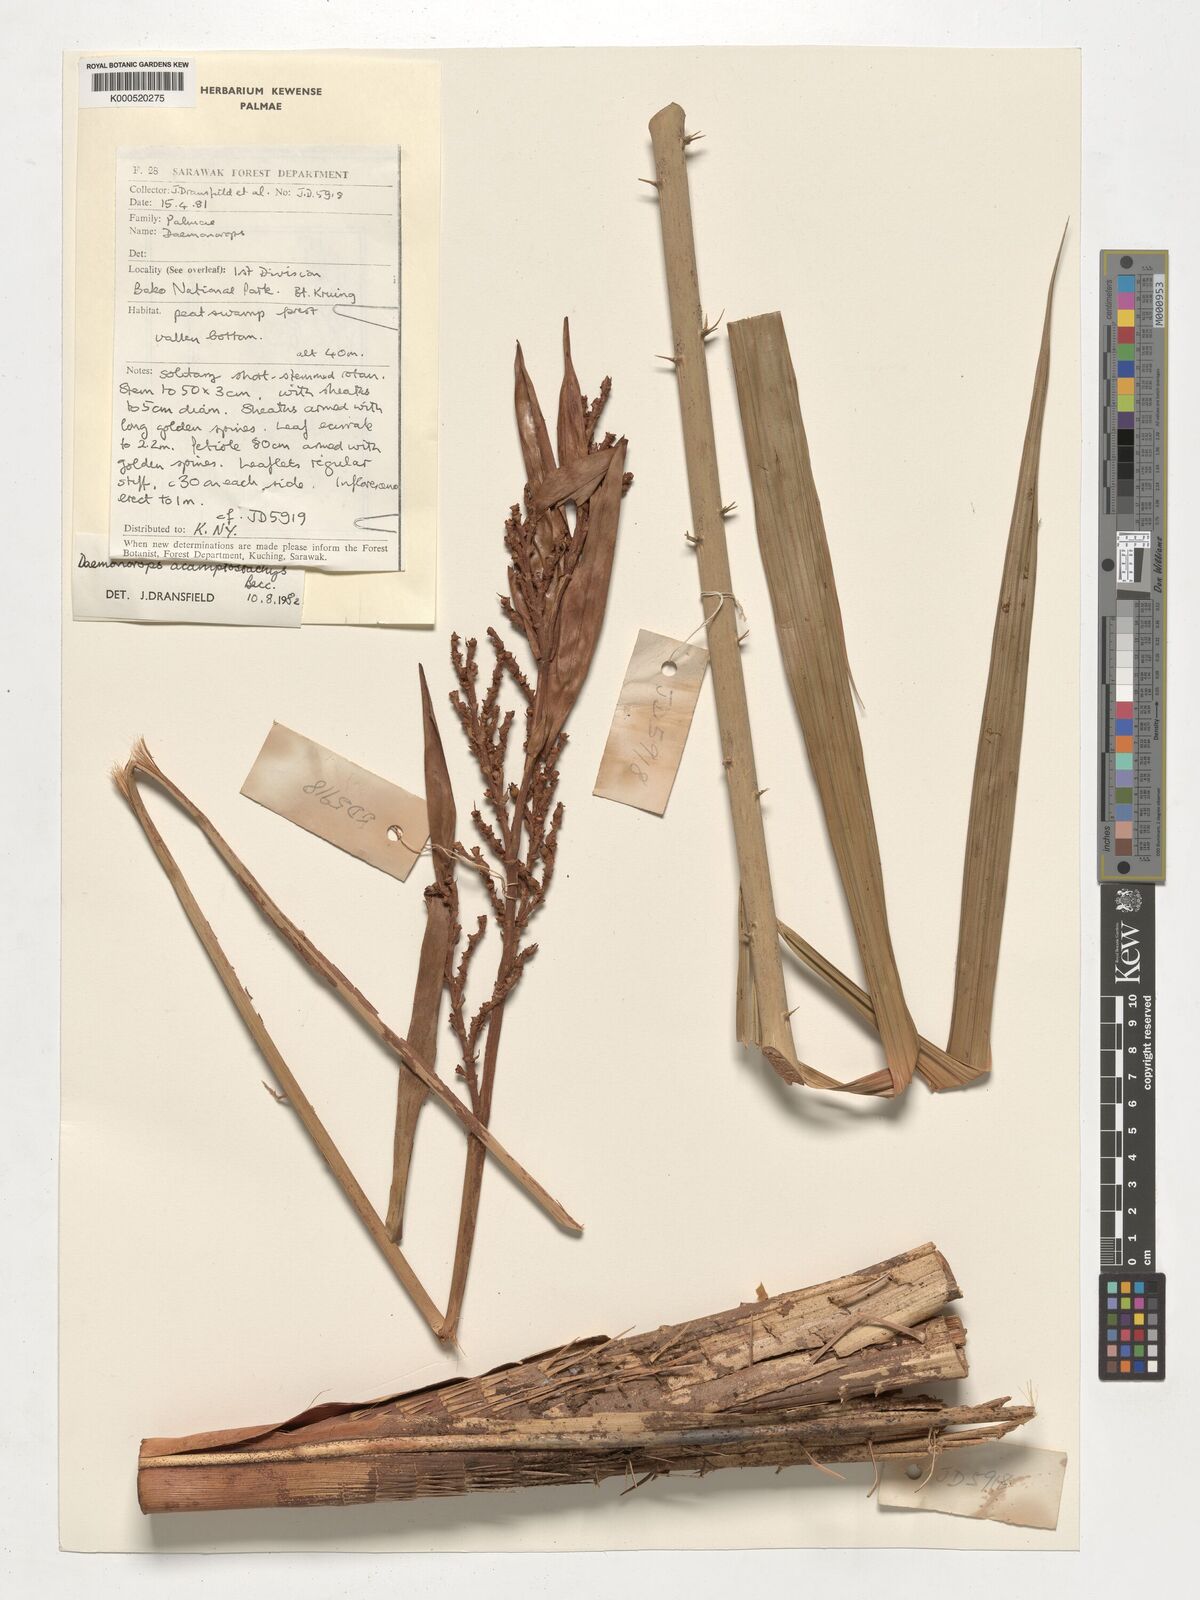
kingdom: Plantae
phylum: Tracheophyta
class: Liliopsida
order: Arecales
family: Arecaceae
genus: Calamus
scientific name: Calamus acamptostachys
